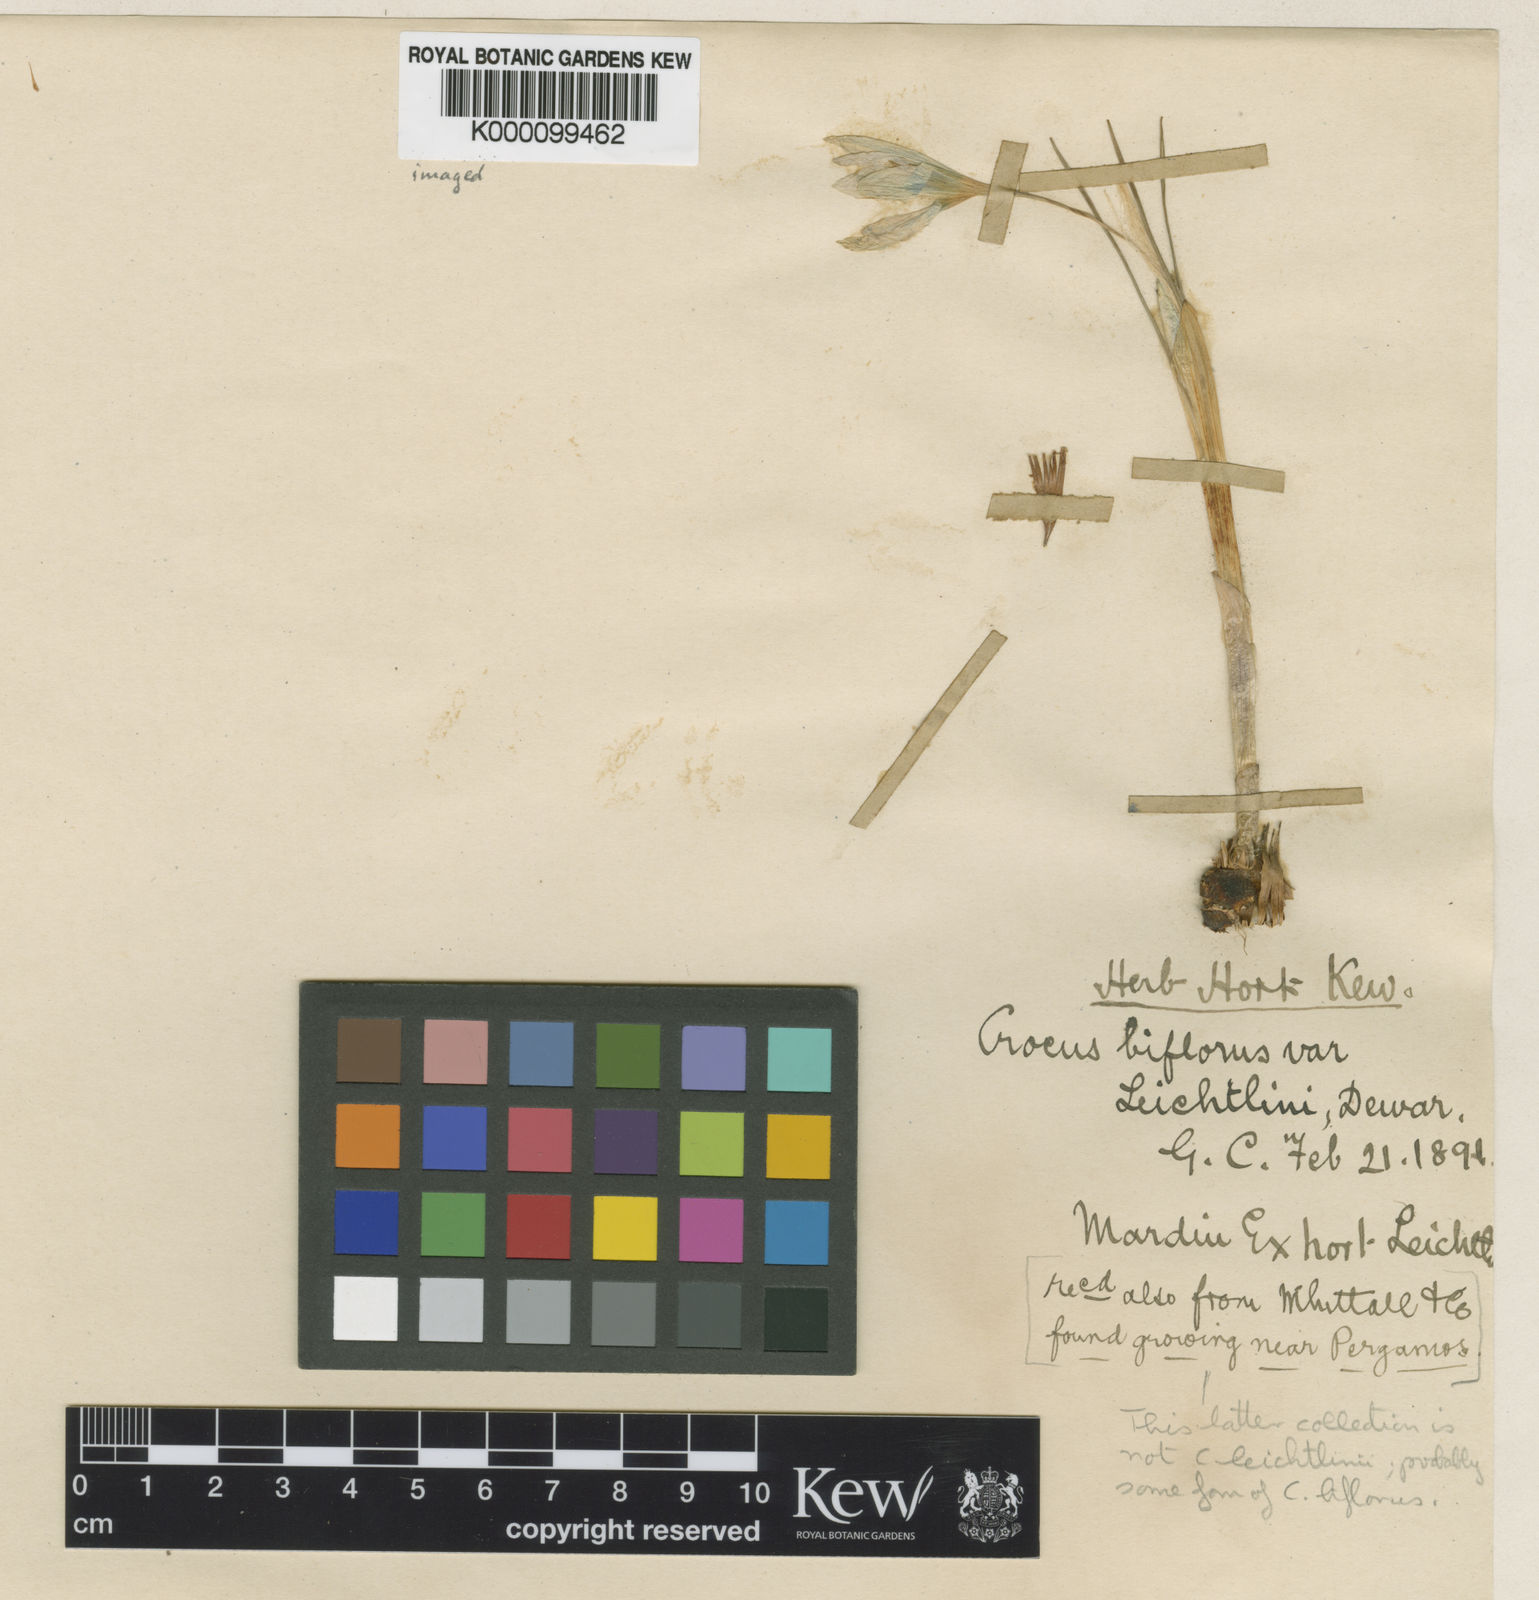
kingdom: Plantae
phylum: Tracheophyta
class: Liliopsida
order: Asparagales
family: Iridaceae
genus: Crocus
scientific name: Crocus leichtlinii
